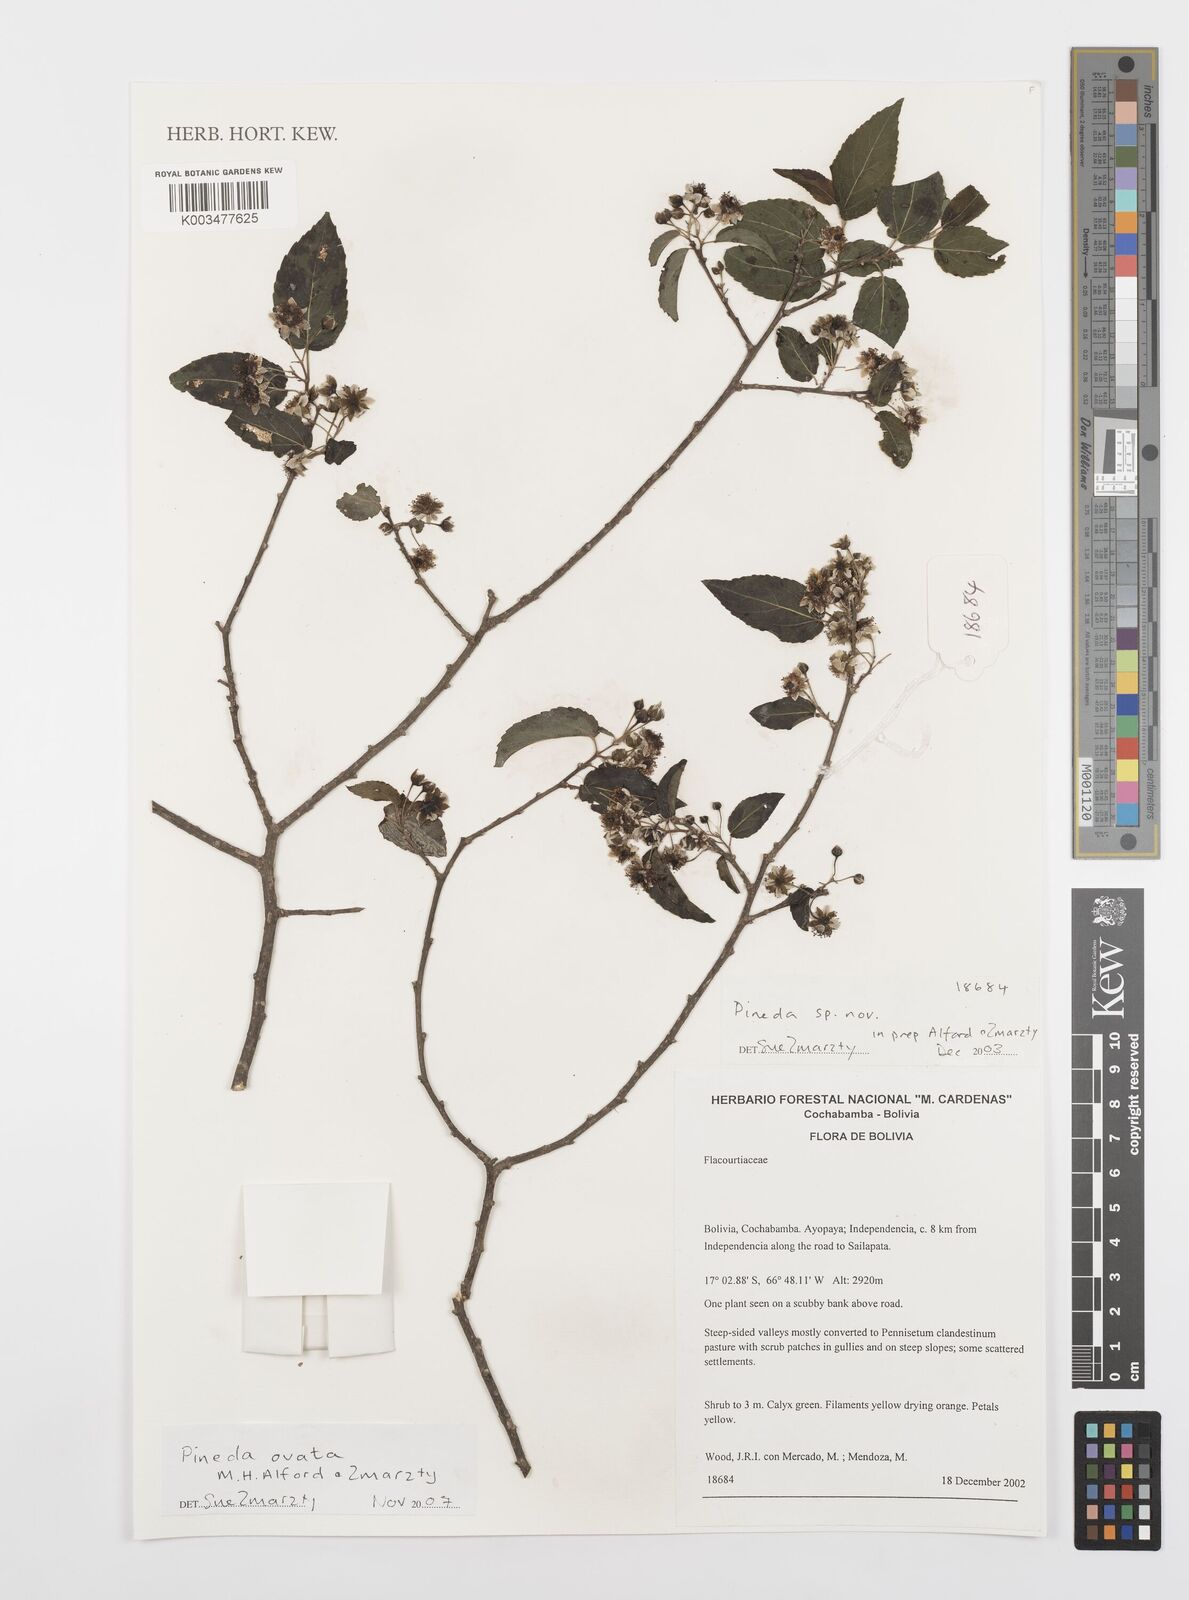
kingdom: Plantae
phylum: Tracheophyta
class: Magnoliopsida
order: Malpighiales
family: Salicaceae
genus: Pineda
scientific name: Pineda ovata
